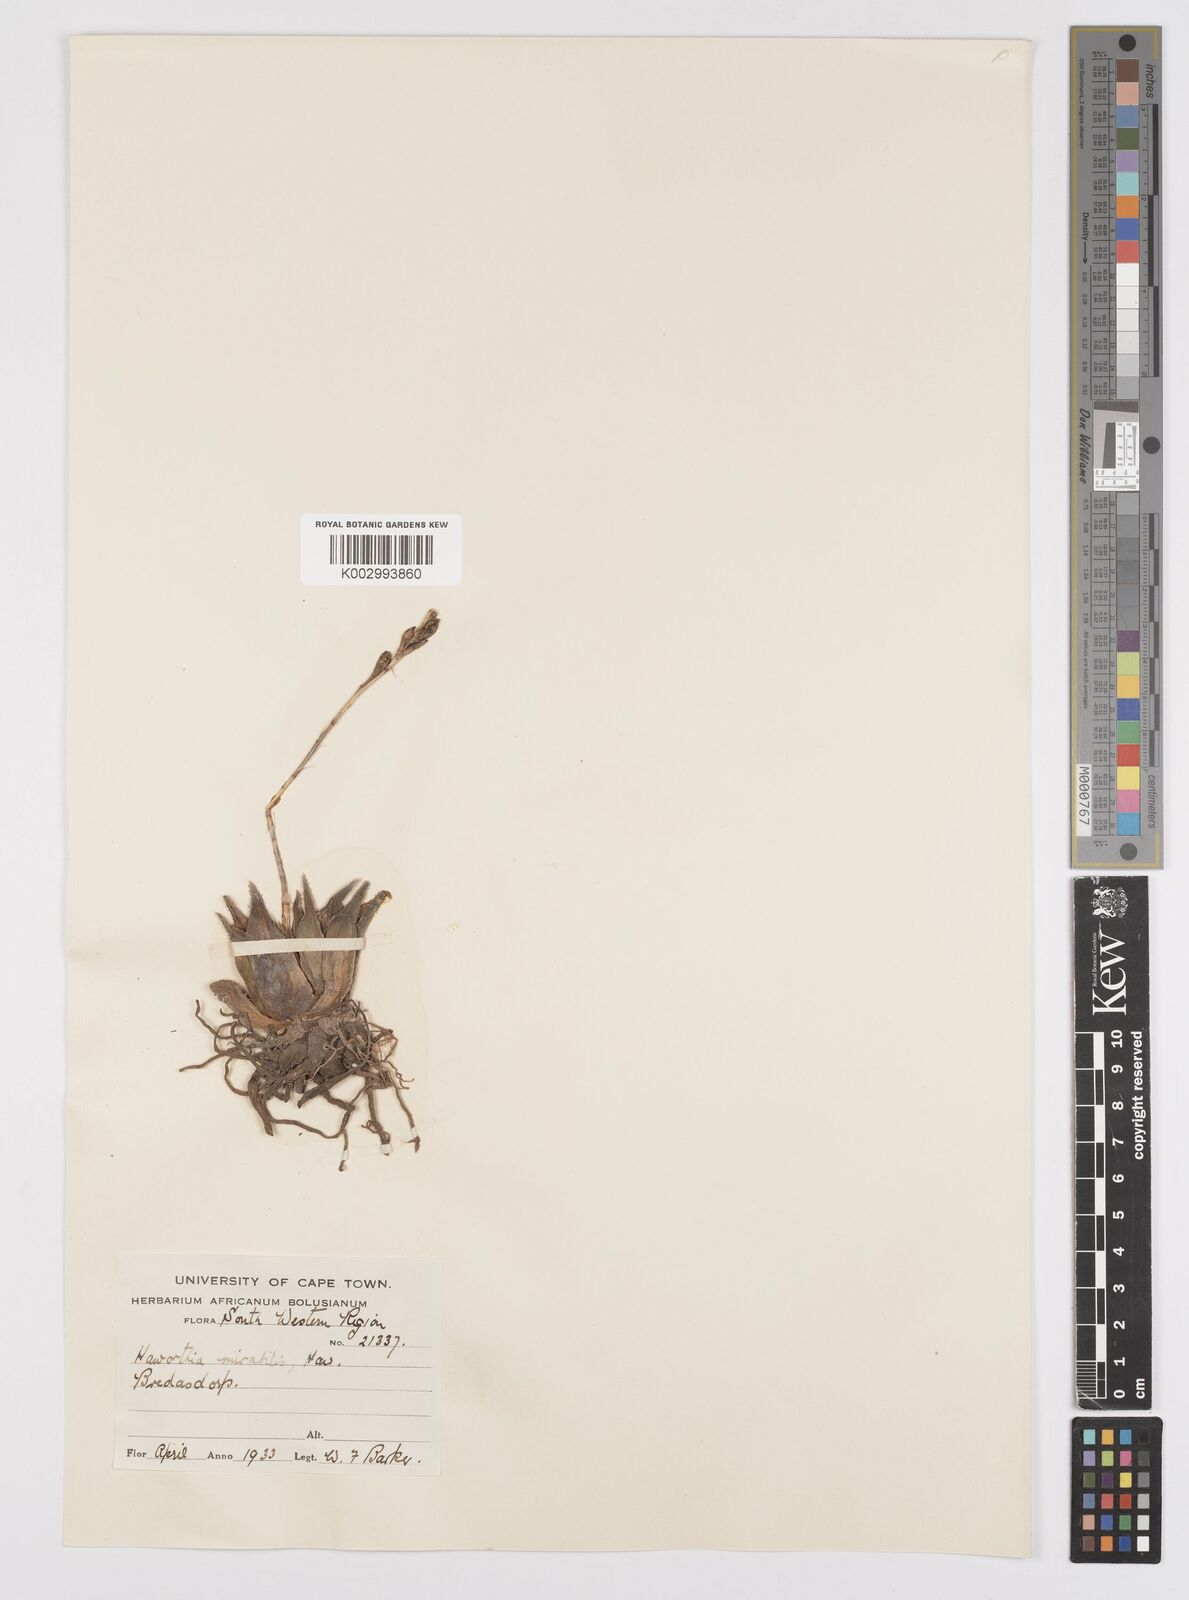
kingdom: Plantae
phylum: Tracheophyta
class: Liliopsida
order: Asparagales
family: Asphodelaceae
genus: Haworthia
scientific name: Haworthia mirabilis
